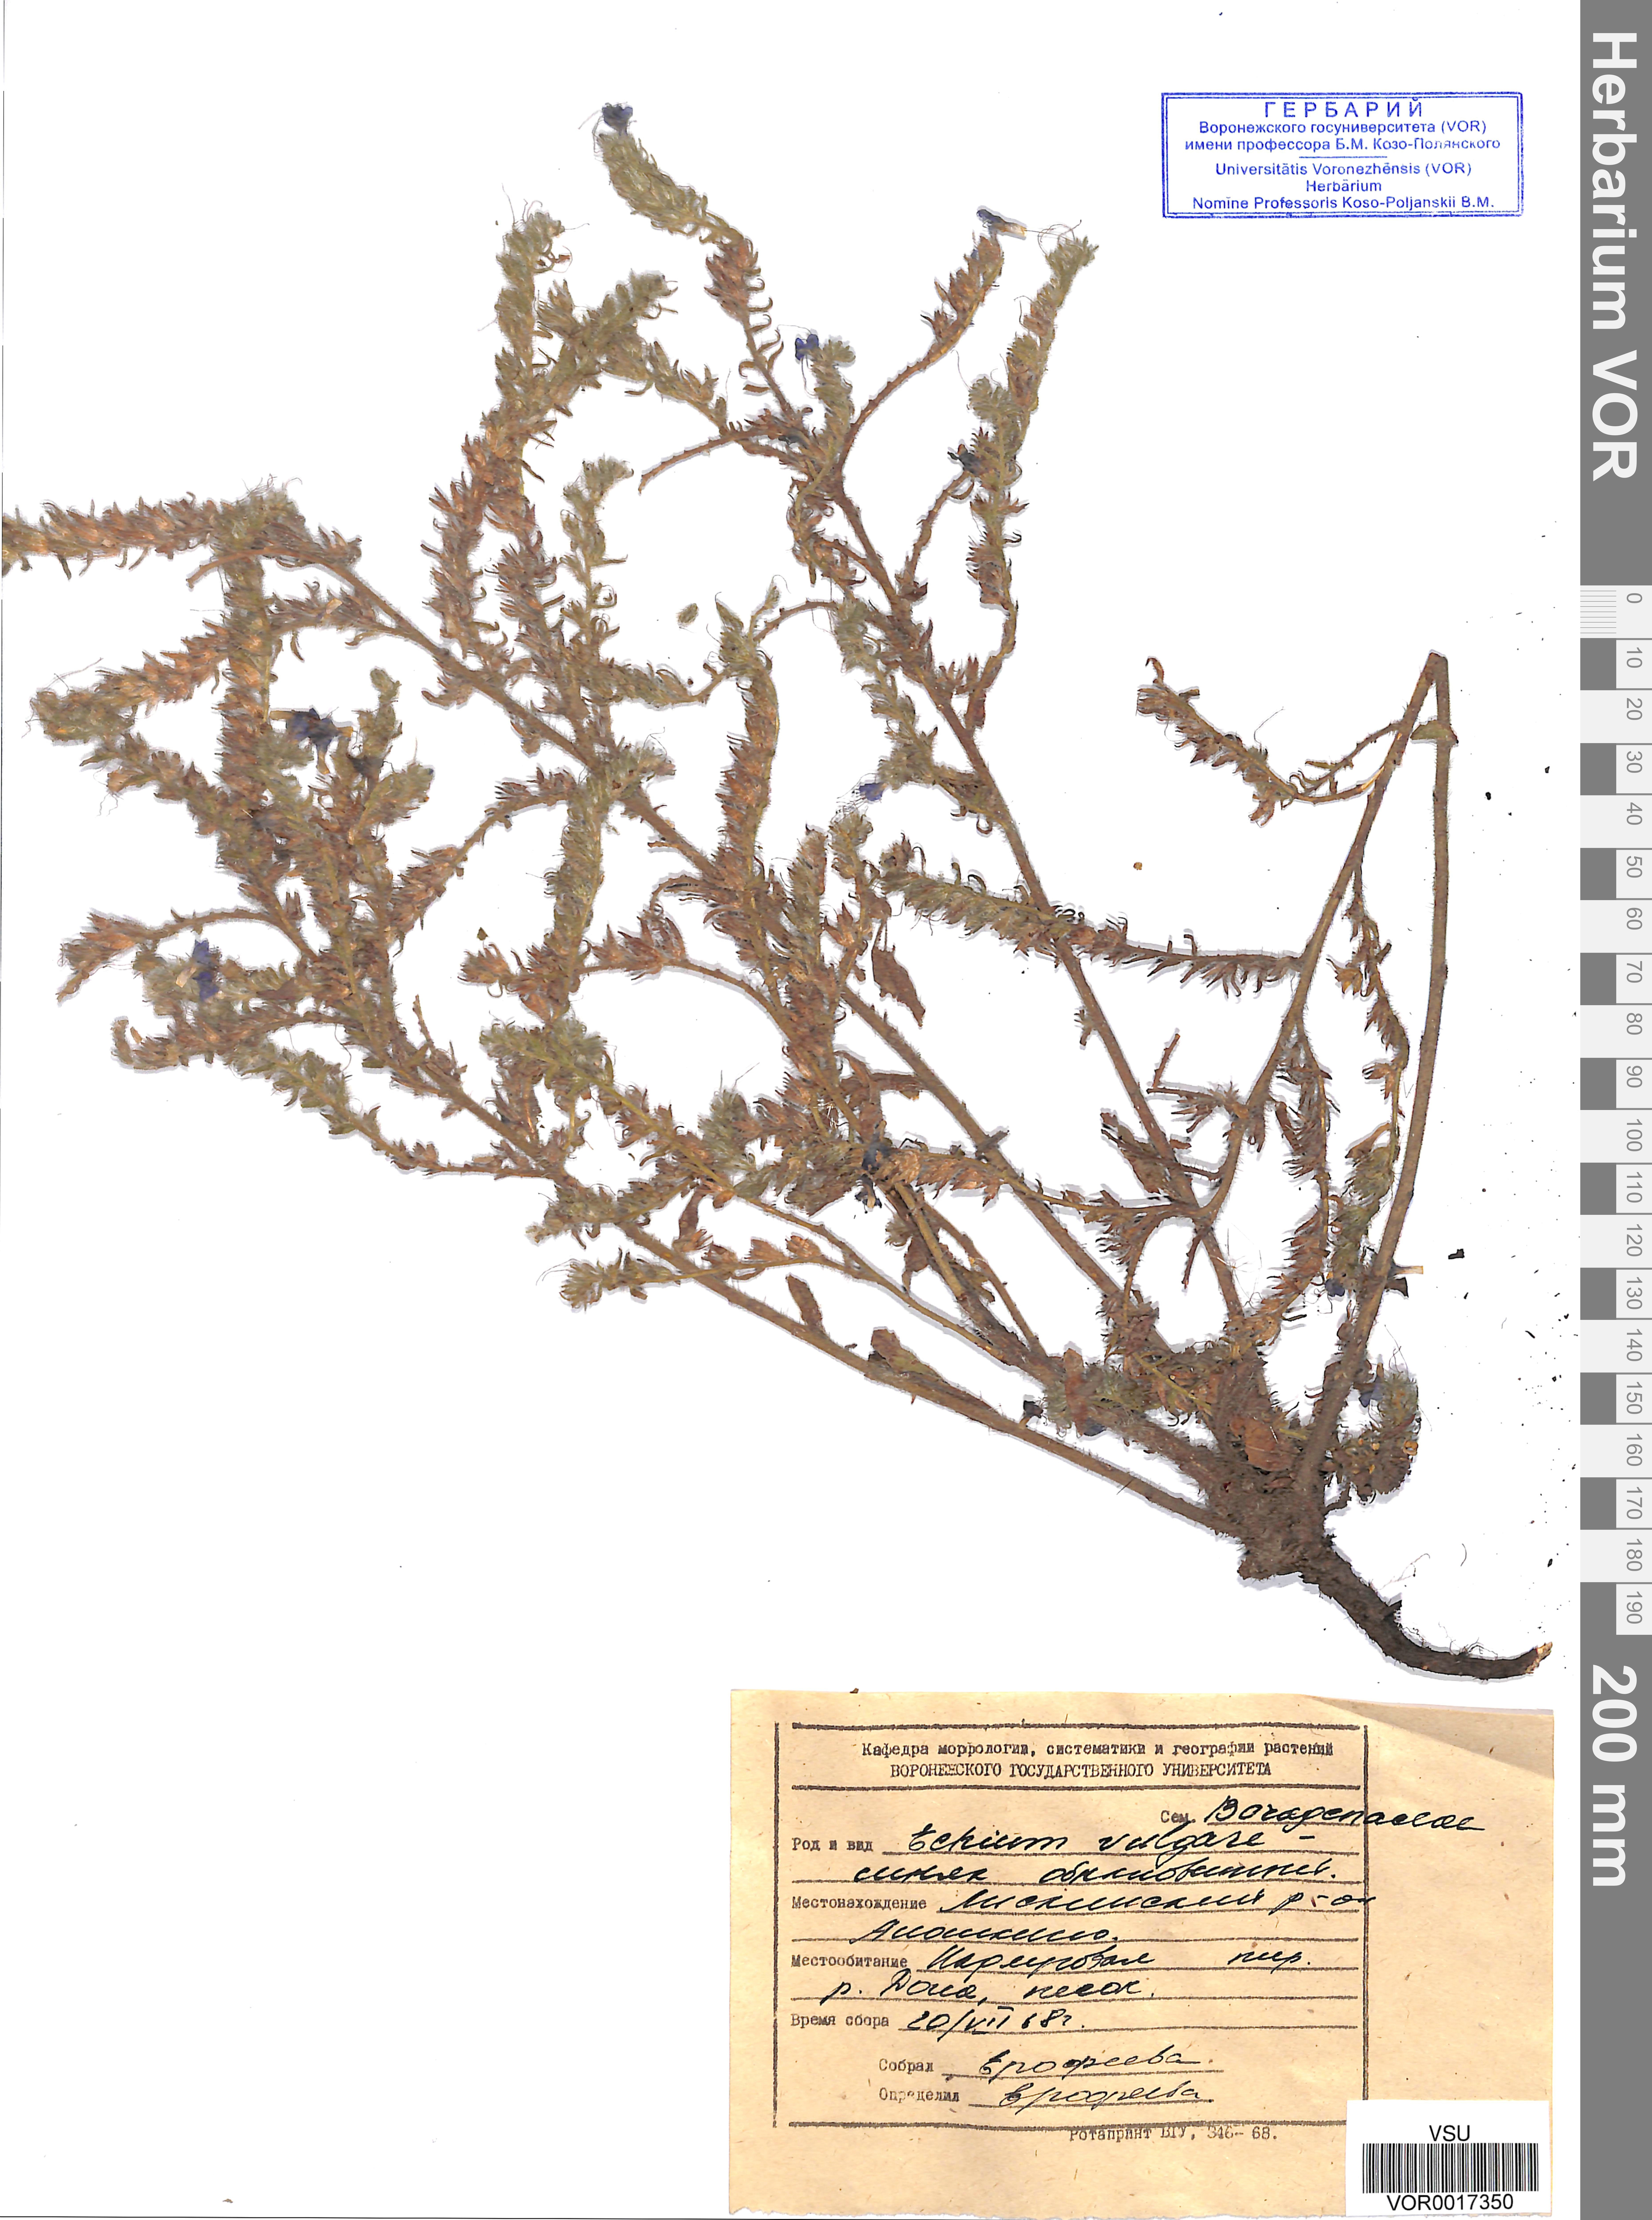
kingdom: Plantae
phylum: Tracheophyta
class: Magnoliopsida
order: Boraginales
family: Boraginaceae
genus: Echium
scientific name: Echium vulgare
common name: Common viper's bugloss
